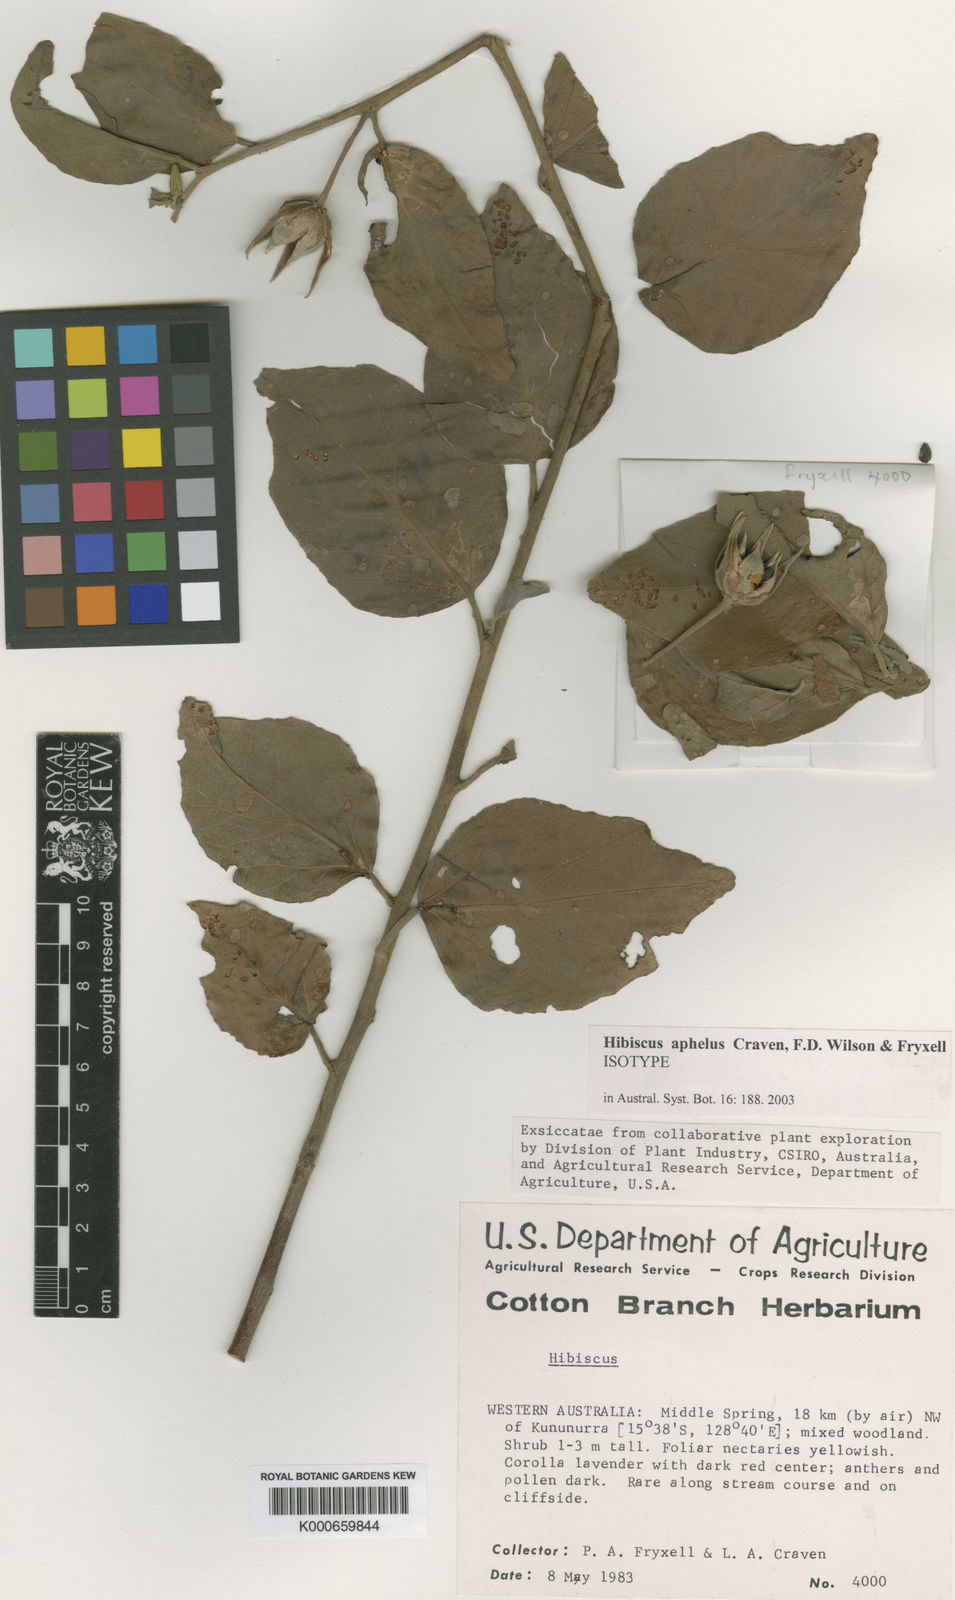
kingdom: Plantae
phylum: Tracheophyta
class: Magnoliopsida
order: Malvales
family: Malvaceae
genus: Hibiscus
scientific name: Hibiscus aphelus
